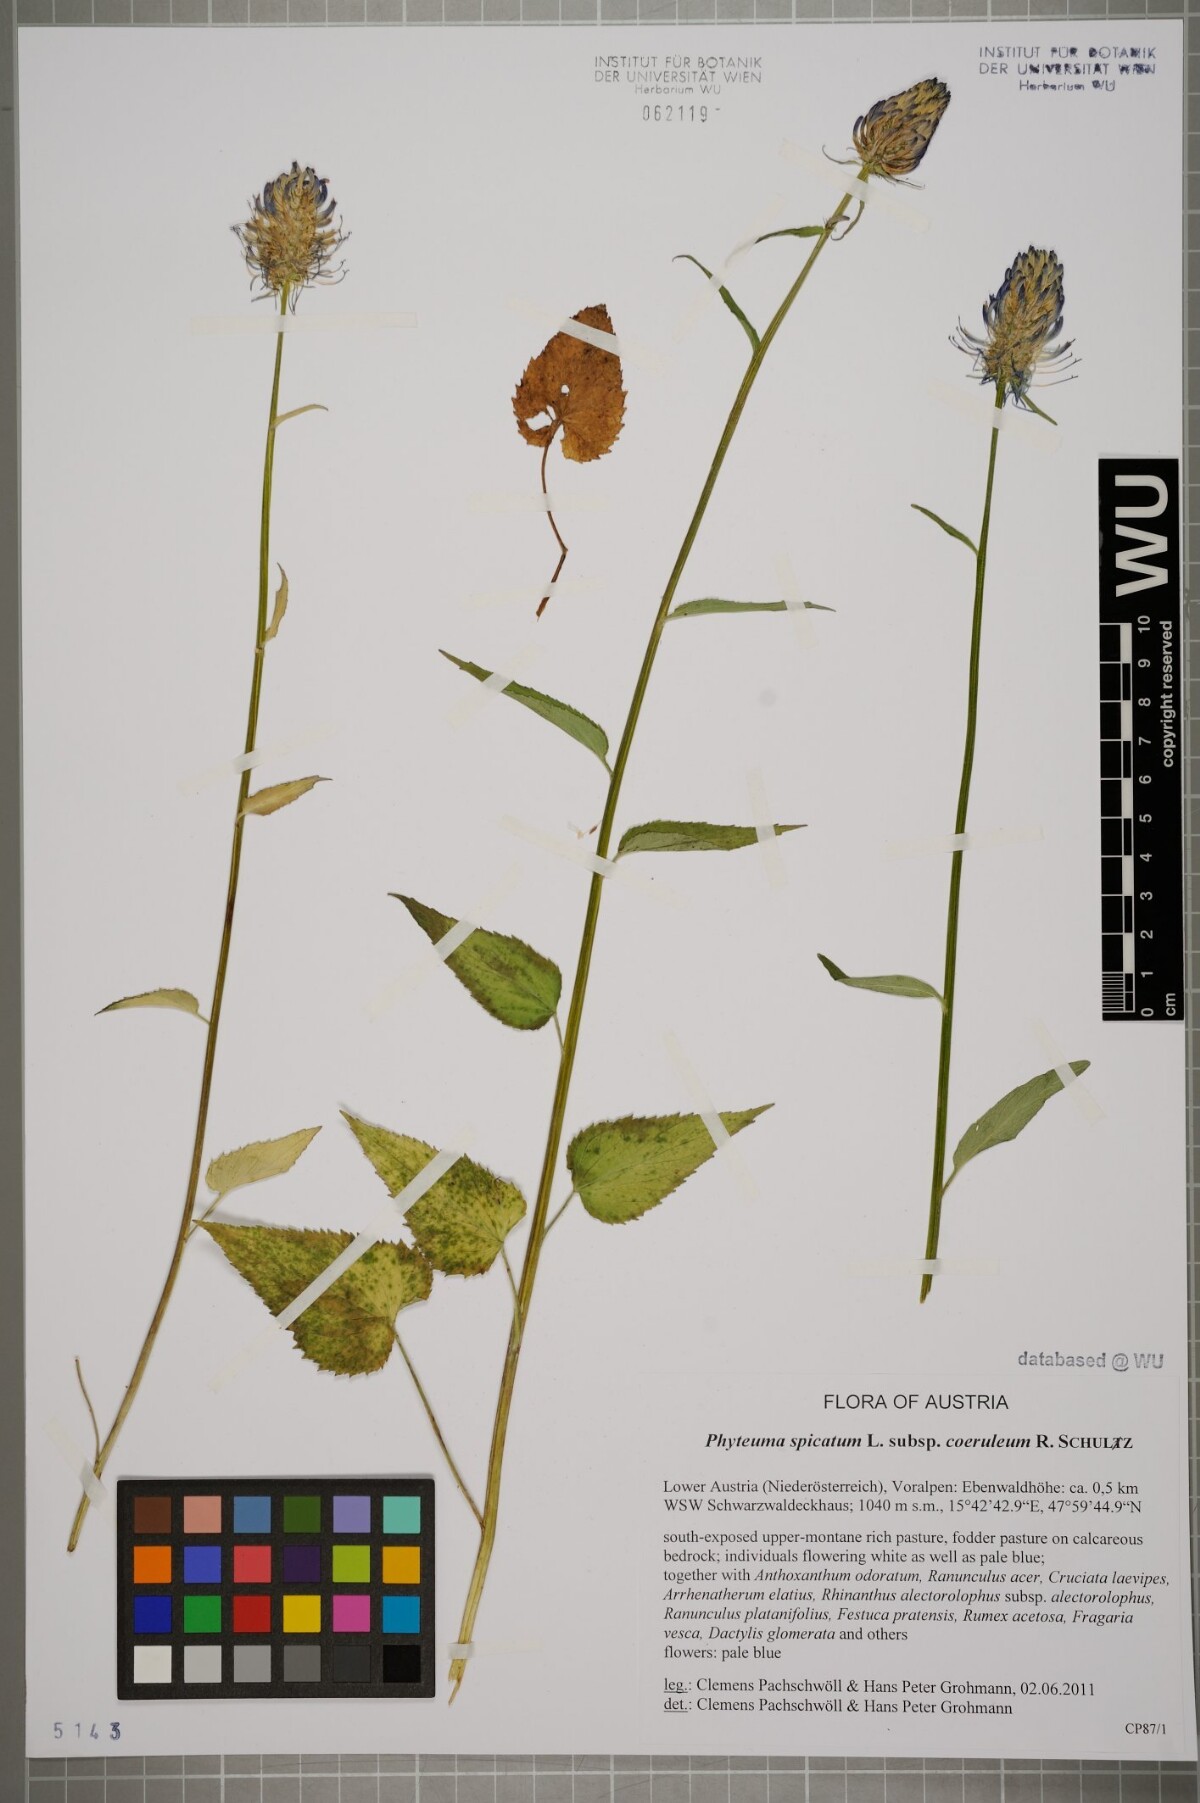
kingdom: Plantae
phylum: Tracheophyta
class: Magnoliopsida
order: Asterales
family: Campanulaceae
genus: Phyteuma
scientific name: Phyteuma spicatum
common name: Spiked rampion
